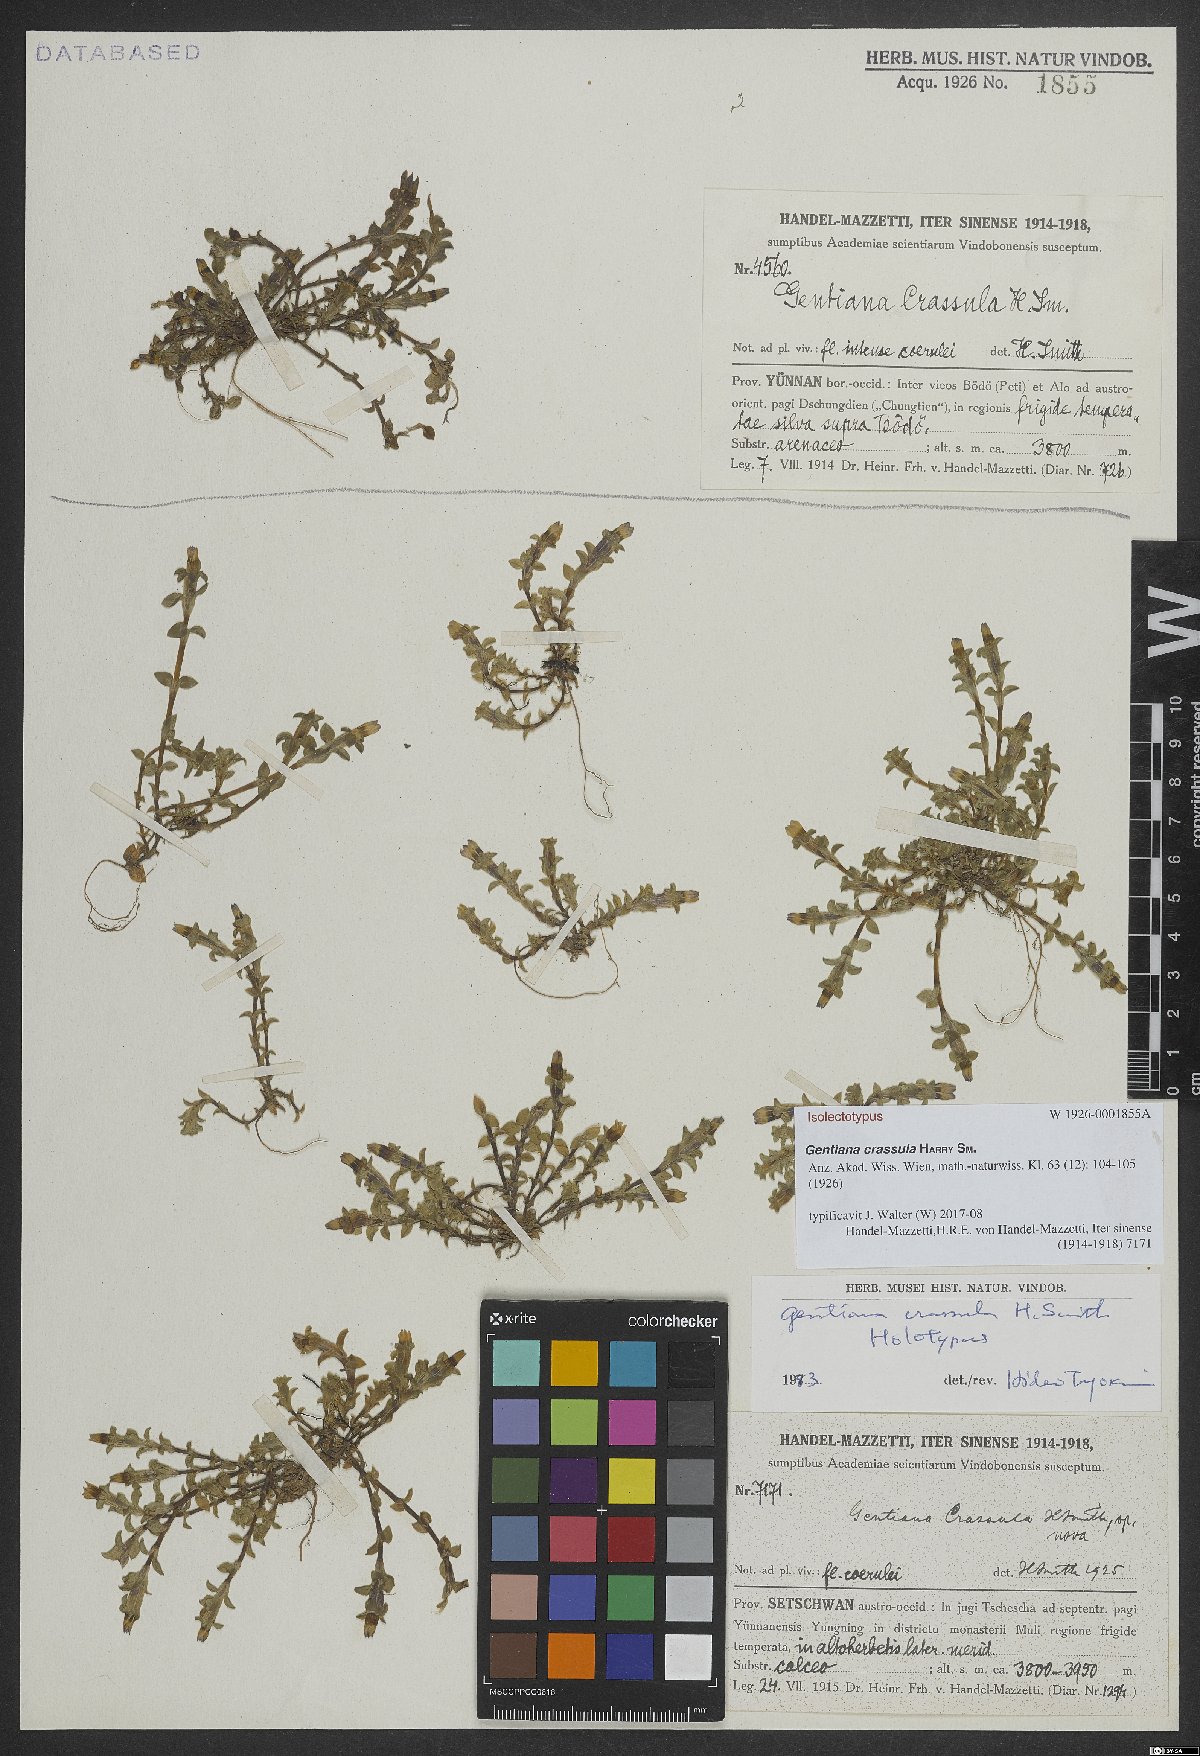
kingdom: Plantae
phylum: Tracheophyta
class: Magnoliopsida
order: Gentianales
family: Gentianaceae
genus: Gentiana
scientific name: Gentiana crassula
